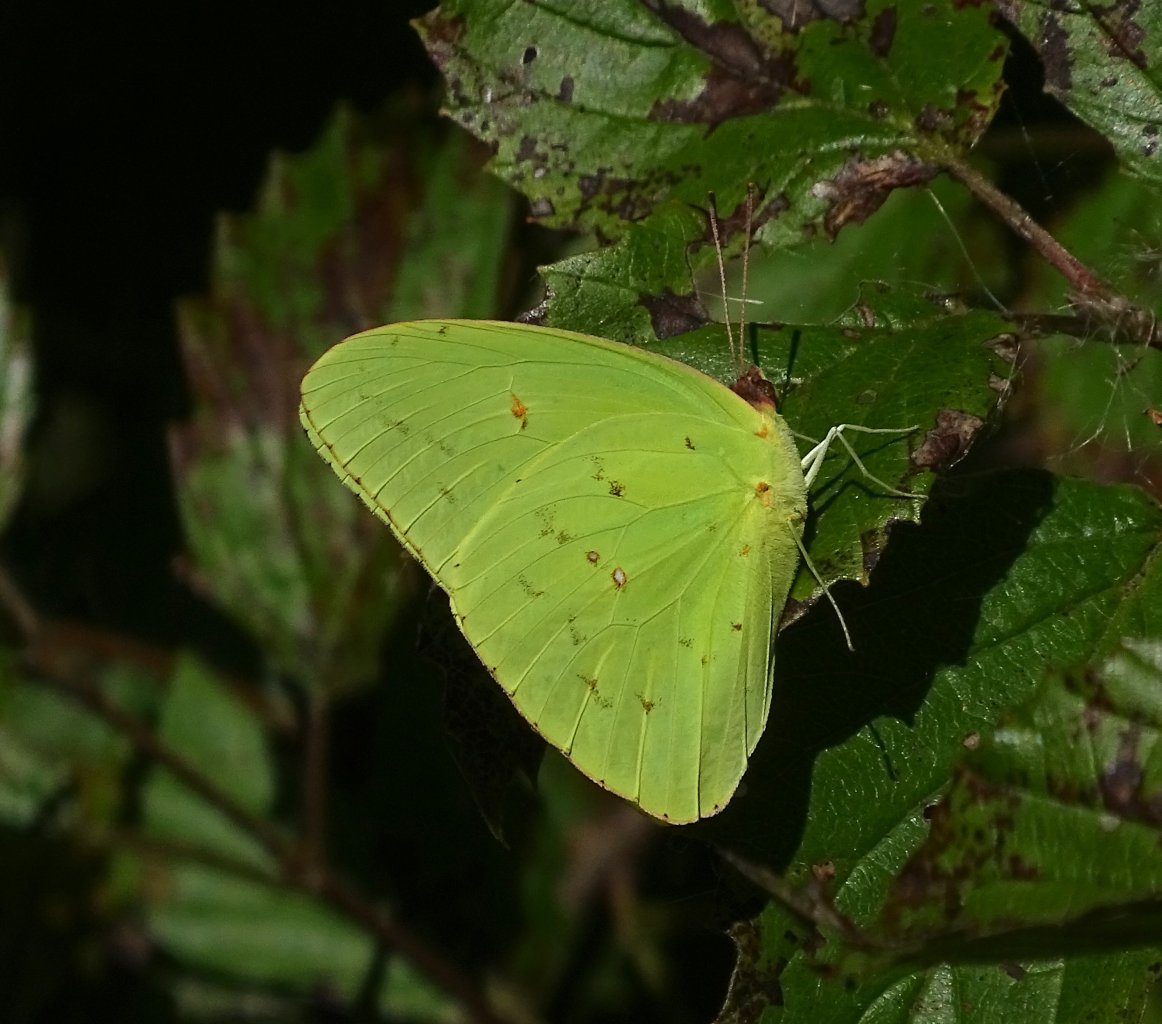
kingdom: Animalia
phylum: Arthropoda
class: Insecta
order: Lepidoptera
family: Pieridae
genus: Phoebis
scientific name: Phoebis sennae
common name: Cloudless Sulphur
